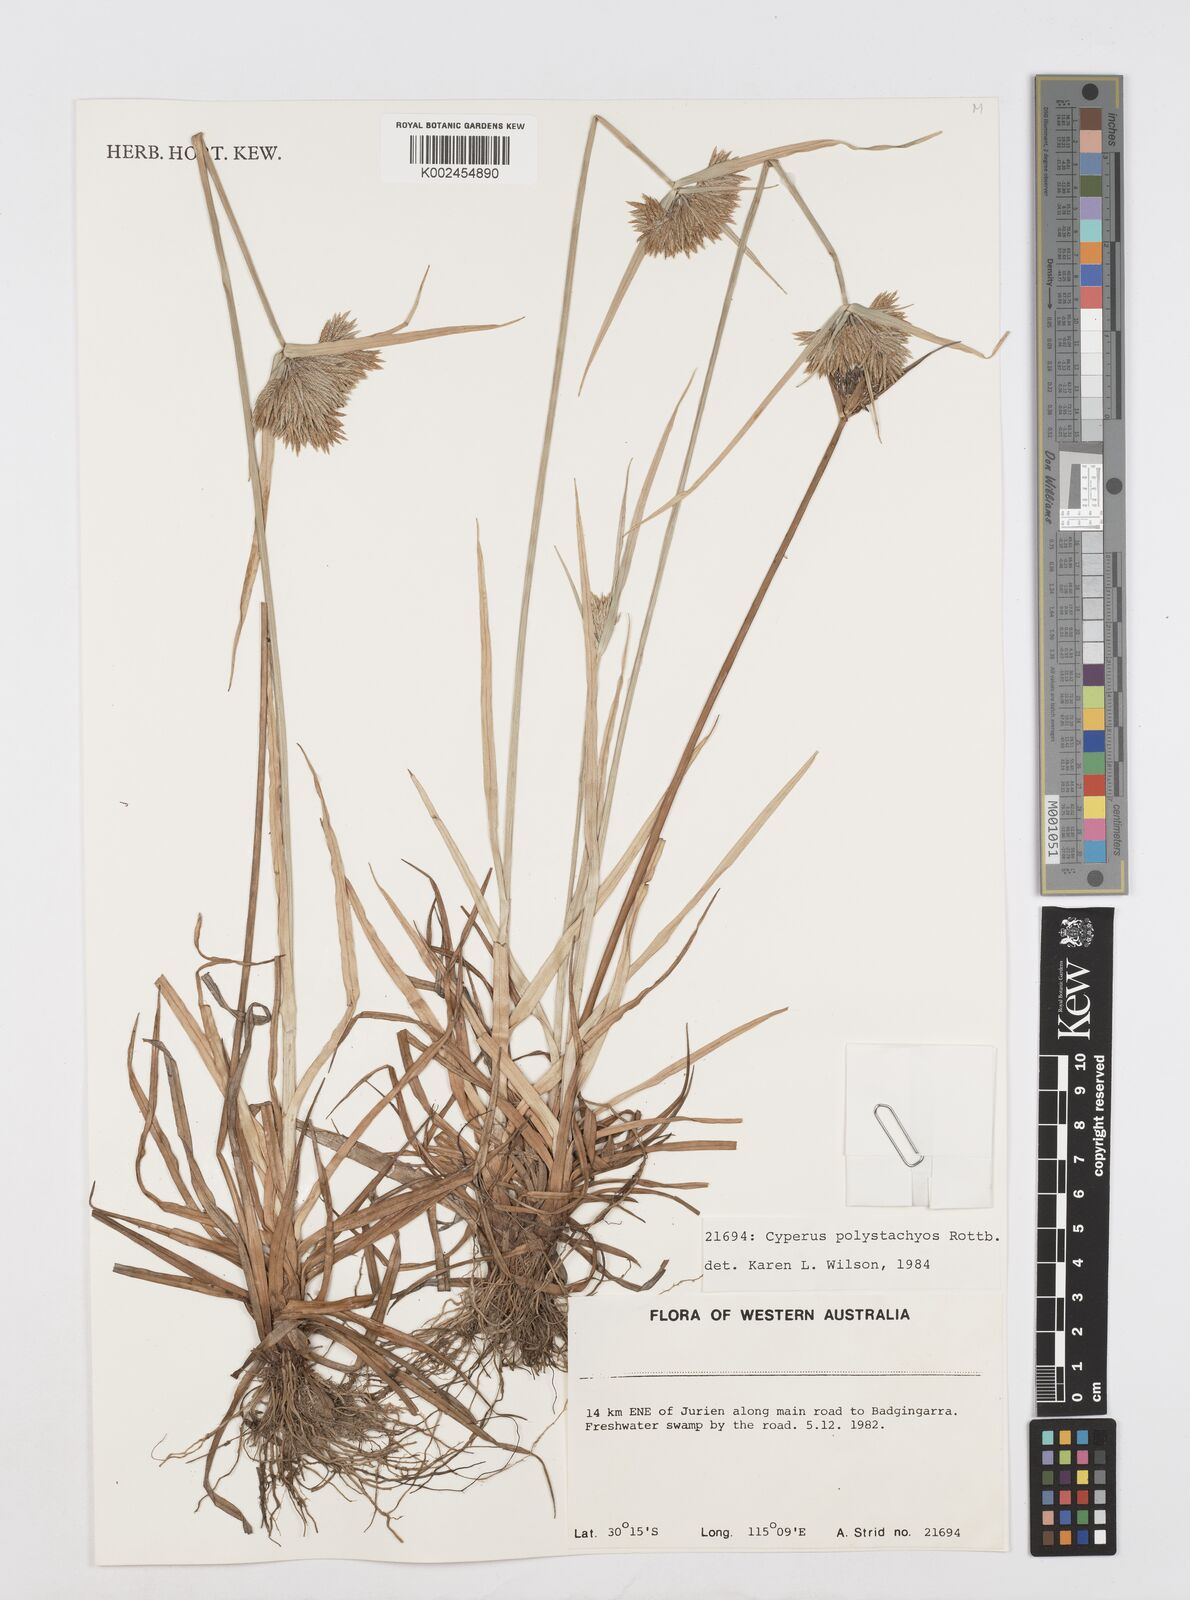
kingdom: Plantae
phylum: Tracheophyta
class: Liliopsida
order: Poales
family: Cyperaceae
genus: Cyperus
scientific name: Cyperus polystachyos
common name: Bunchy flat sedge
